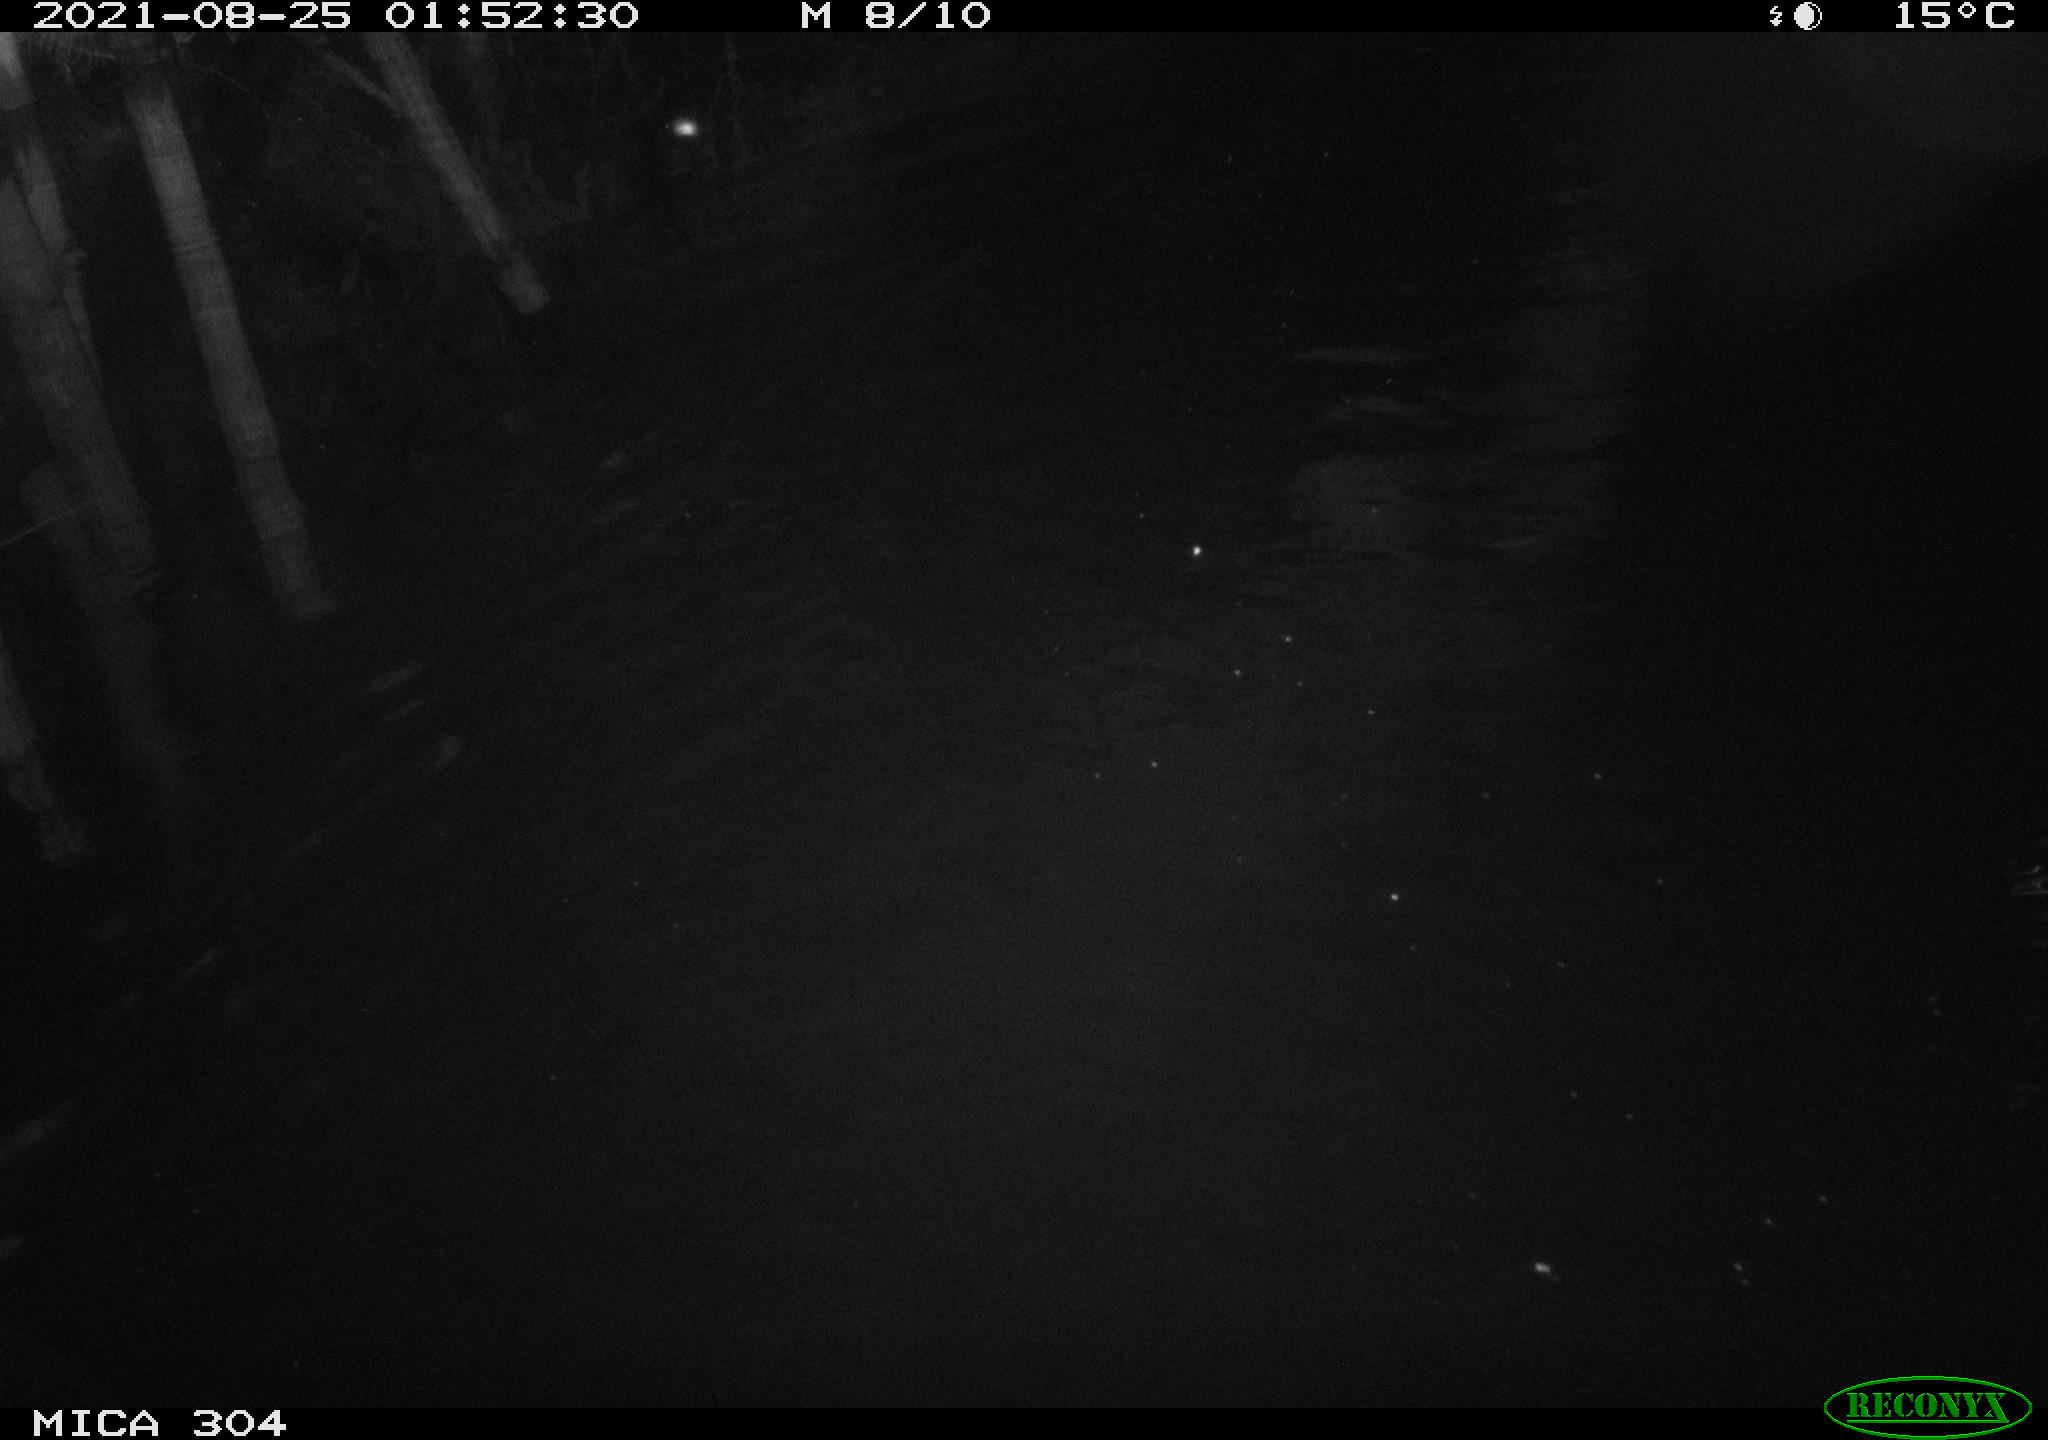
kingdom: Animalia
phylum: Chordata
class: Mammalia
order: Rodentia
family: Cricetidae
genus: Ondatra
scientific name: Ondatra zibethicus
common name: Muskrat
